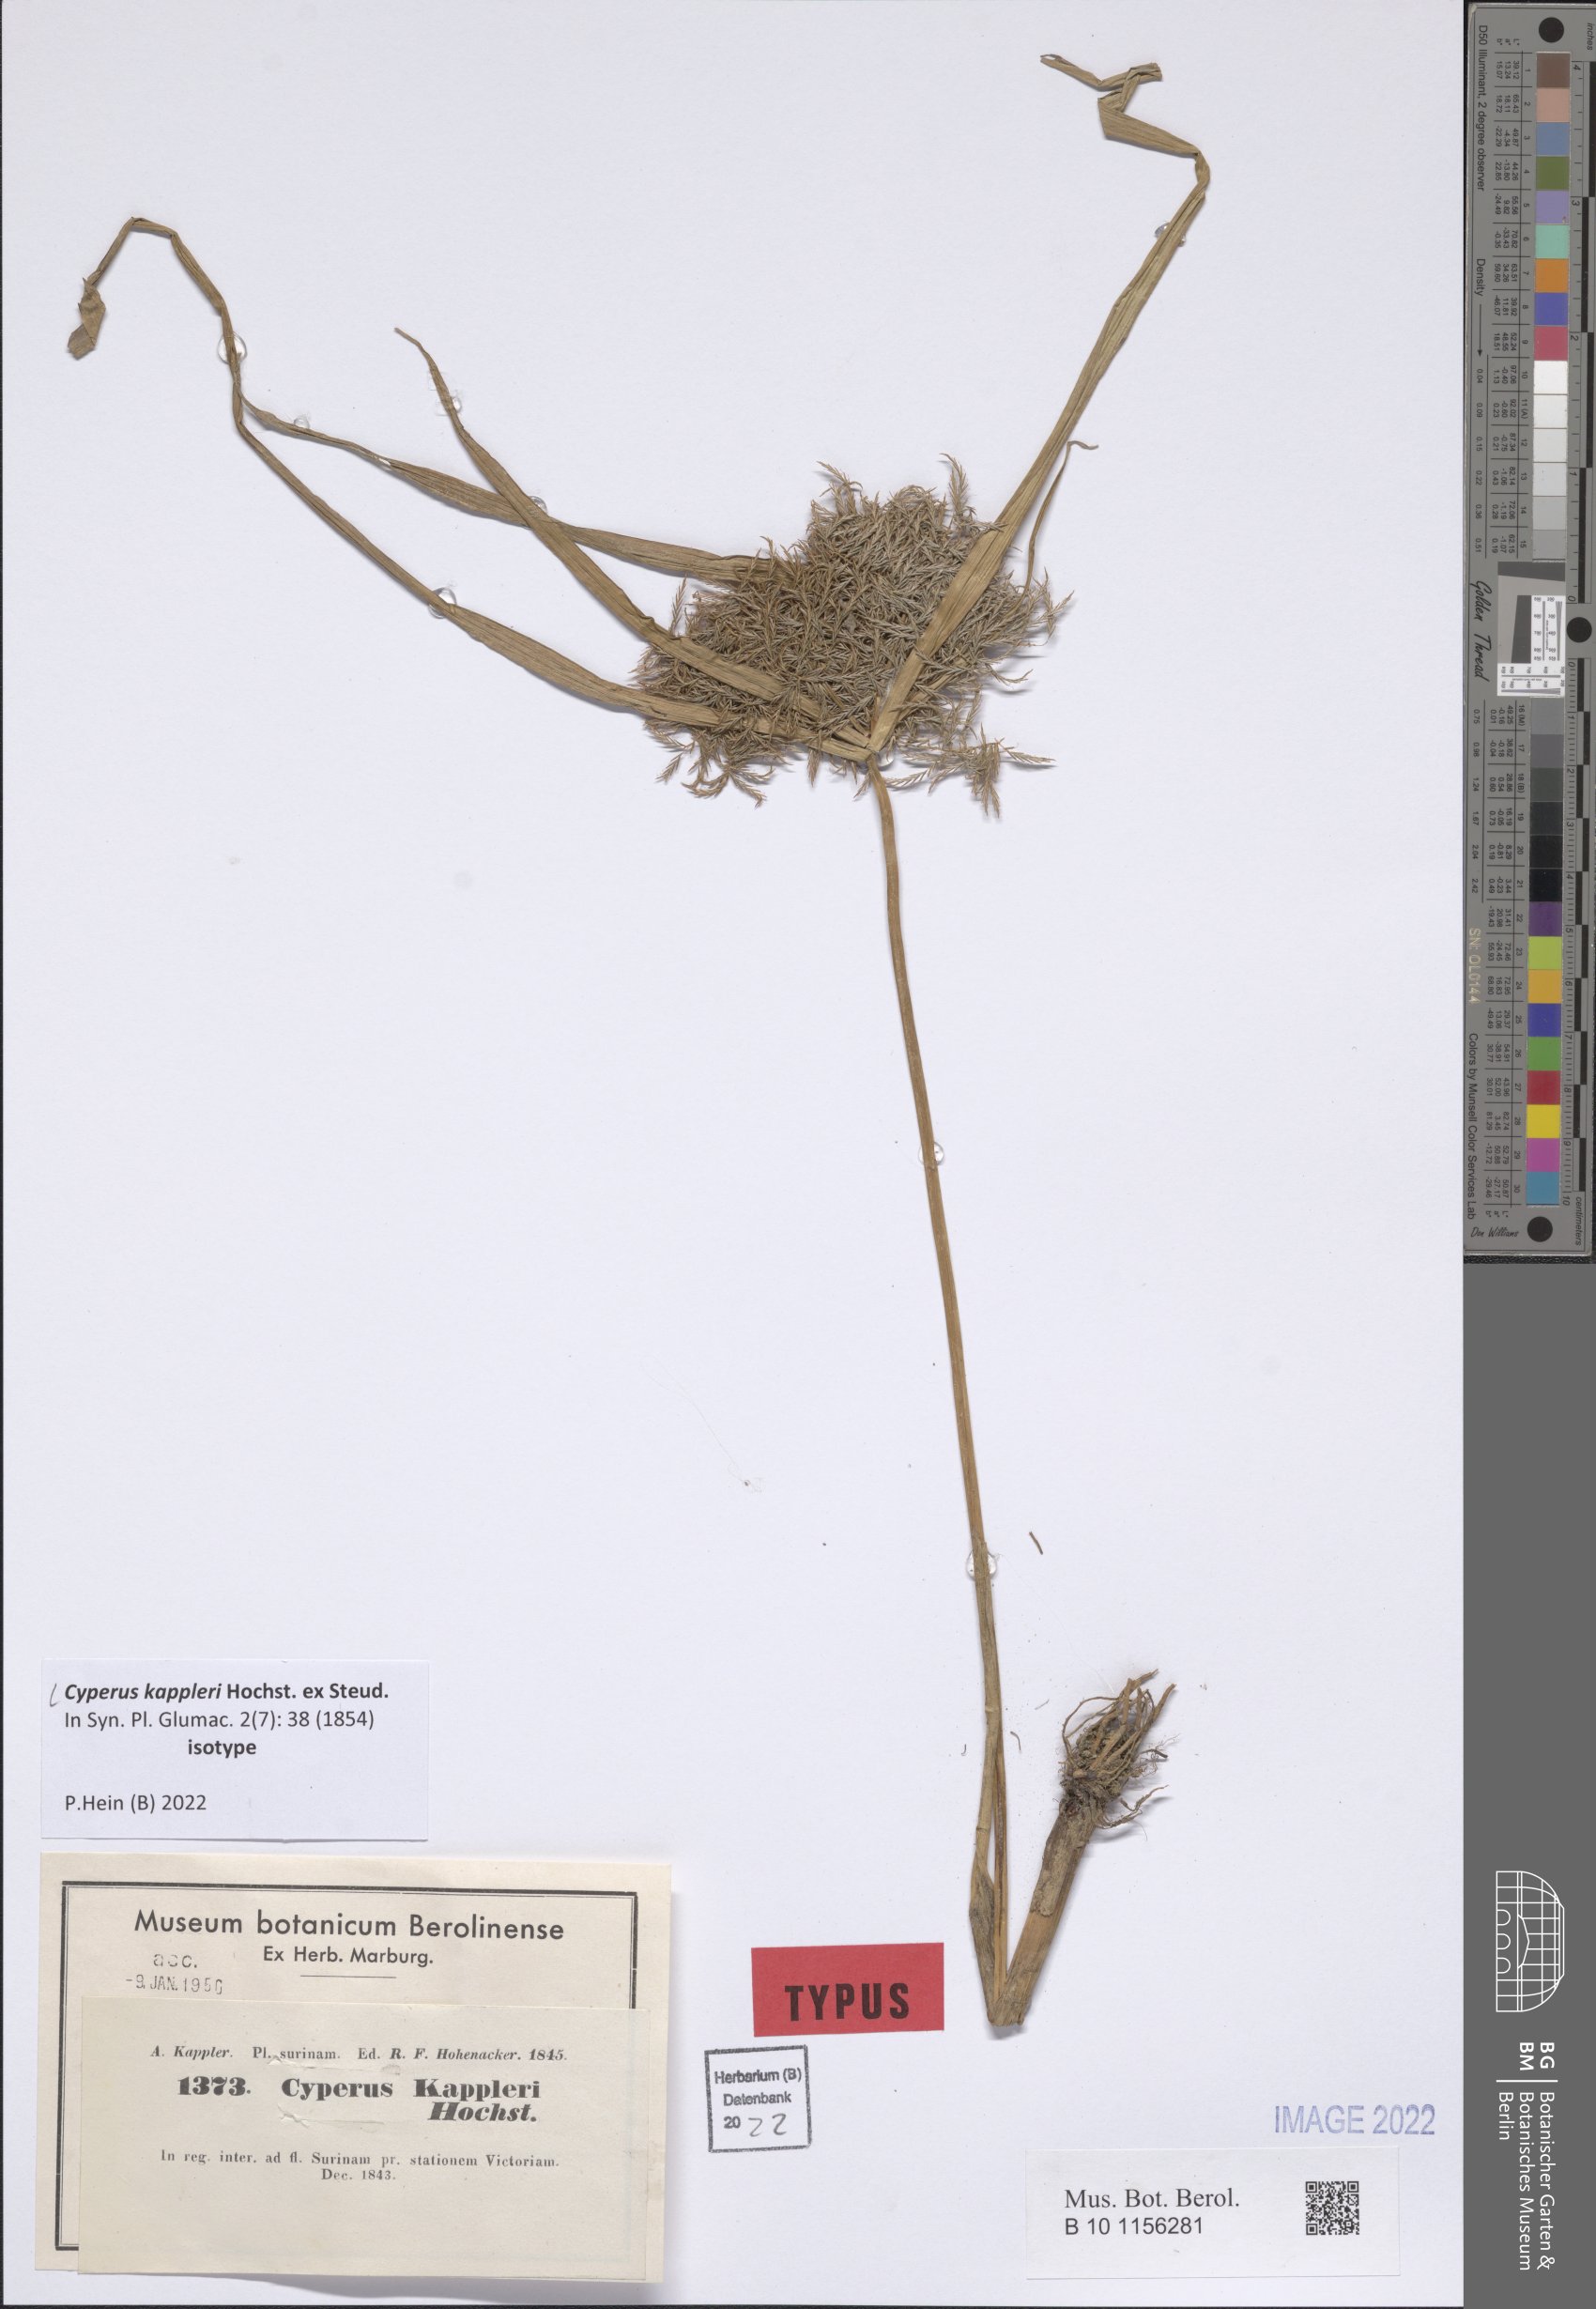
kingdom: Plantae
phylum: Tracheophyta
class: Liliopsida
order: Poales
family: Cyperaceae
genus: Cyperus
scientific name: Cyperus kappleri
